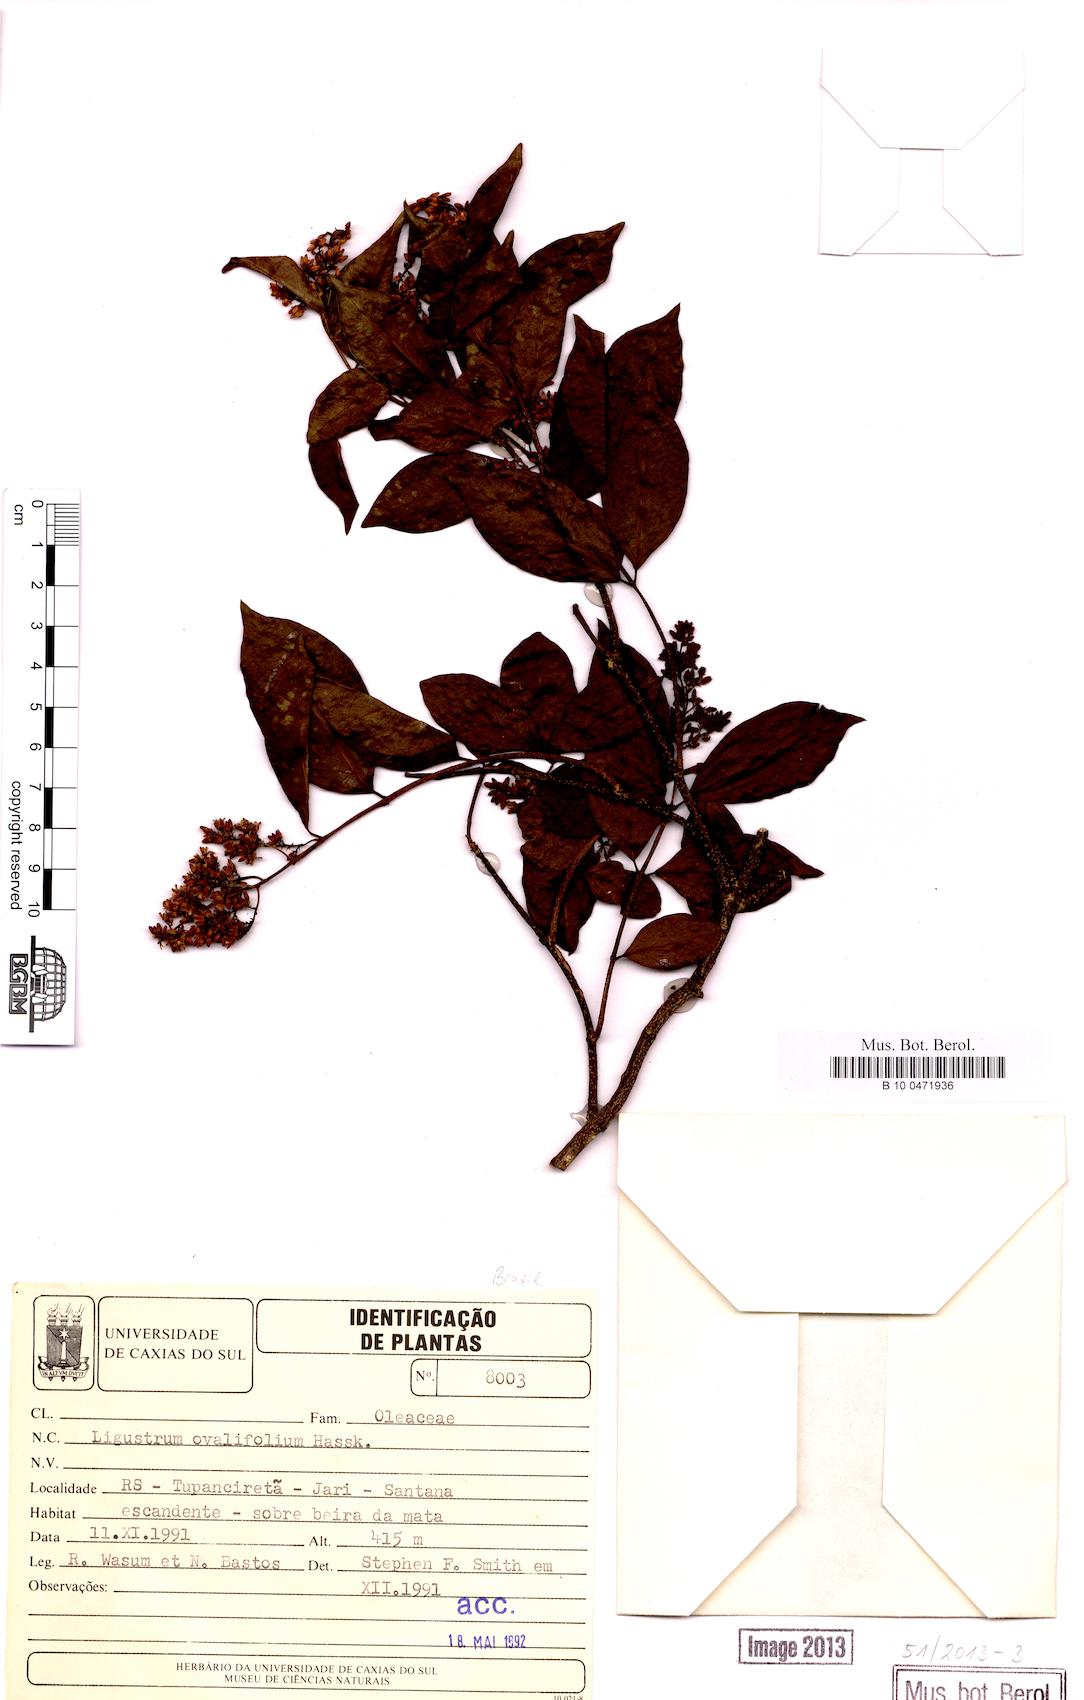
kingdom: Plantae
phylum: Tracheophyta
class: Magnoliopsida
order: Lamiales
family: Oleaceae
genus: Ligustrum
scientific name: Ligustrum ovalifolium
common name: California privet
